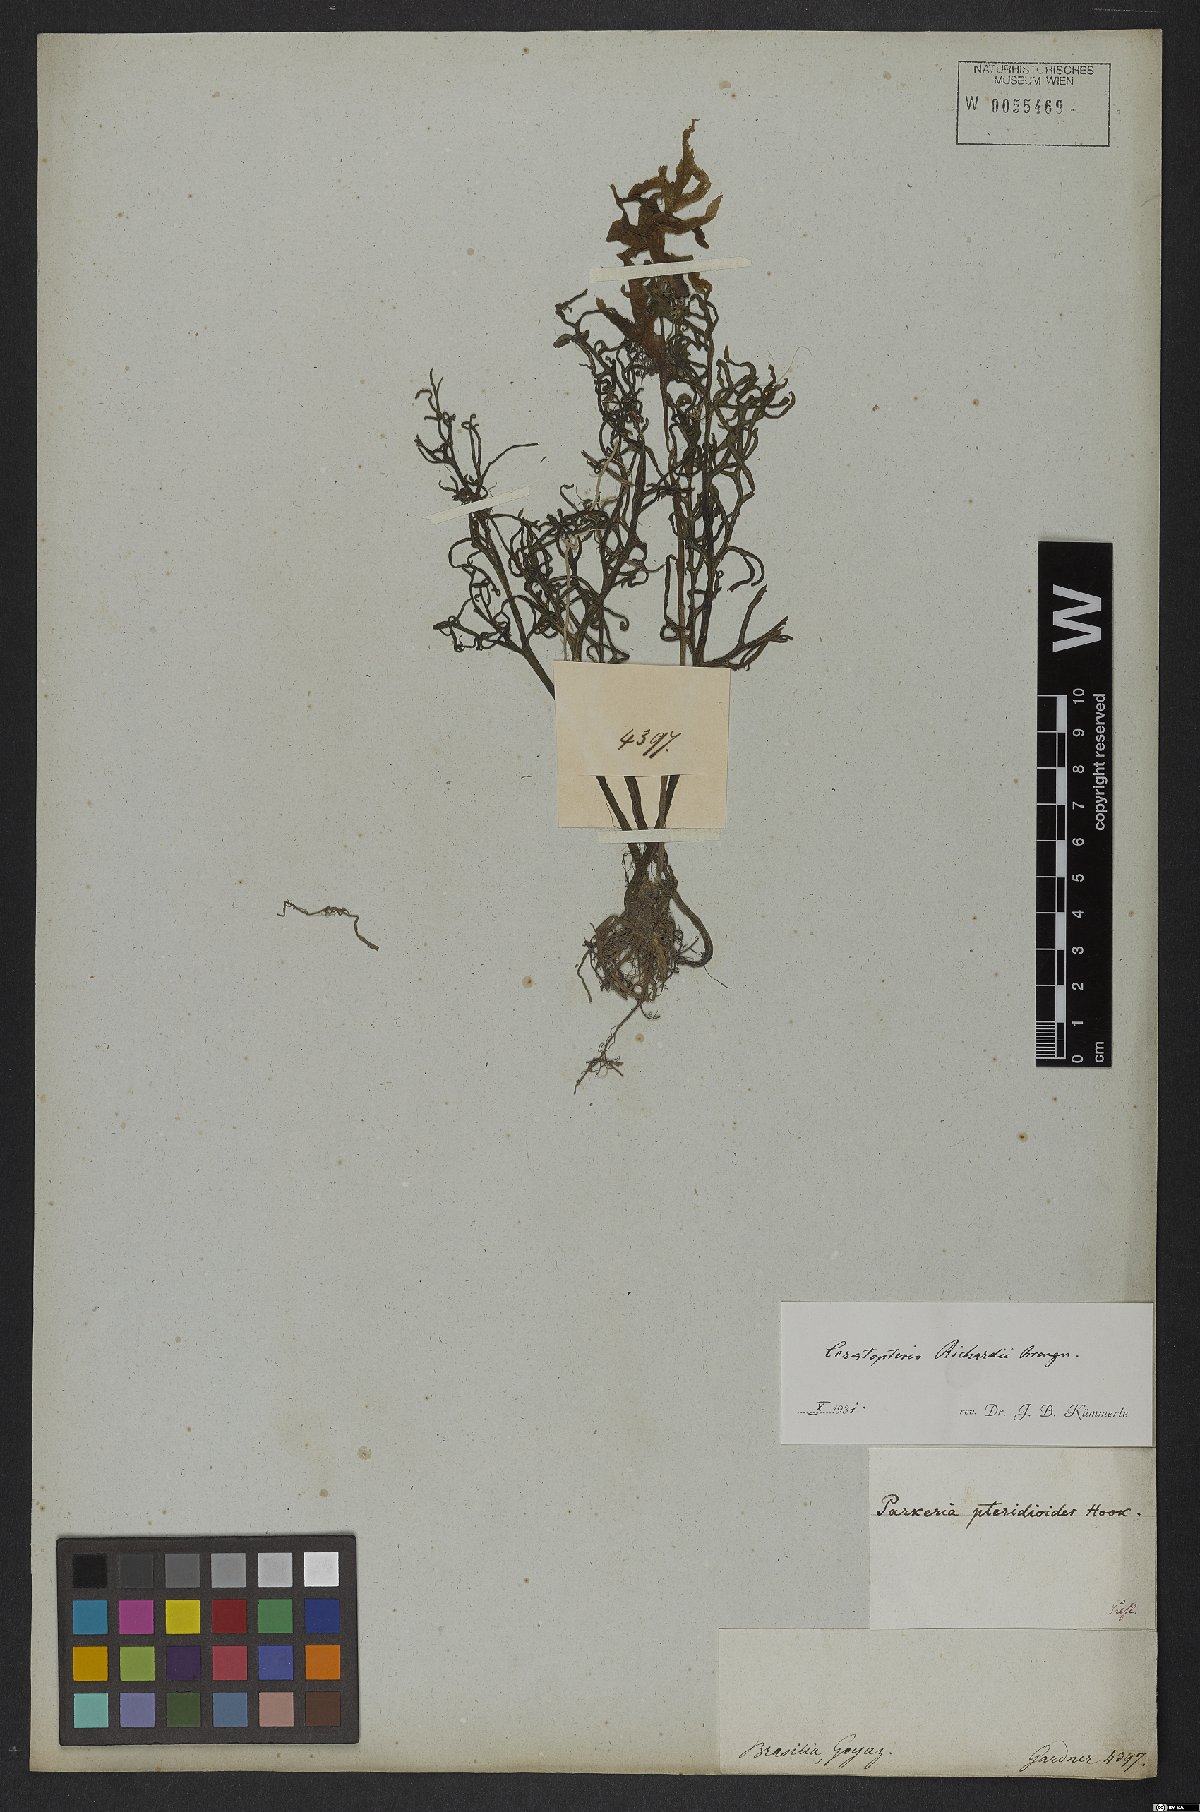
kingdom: Plantae
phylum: Tracheophyta
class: Polypodiopsida
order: Polypodiales
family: Pteridaceae
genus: Ceratopteris
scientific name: Ceratopteris richardii
